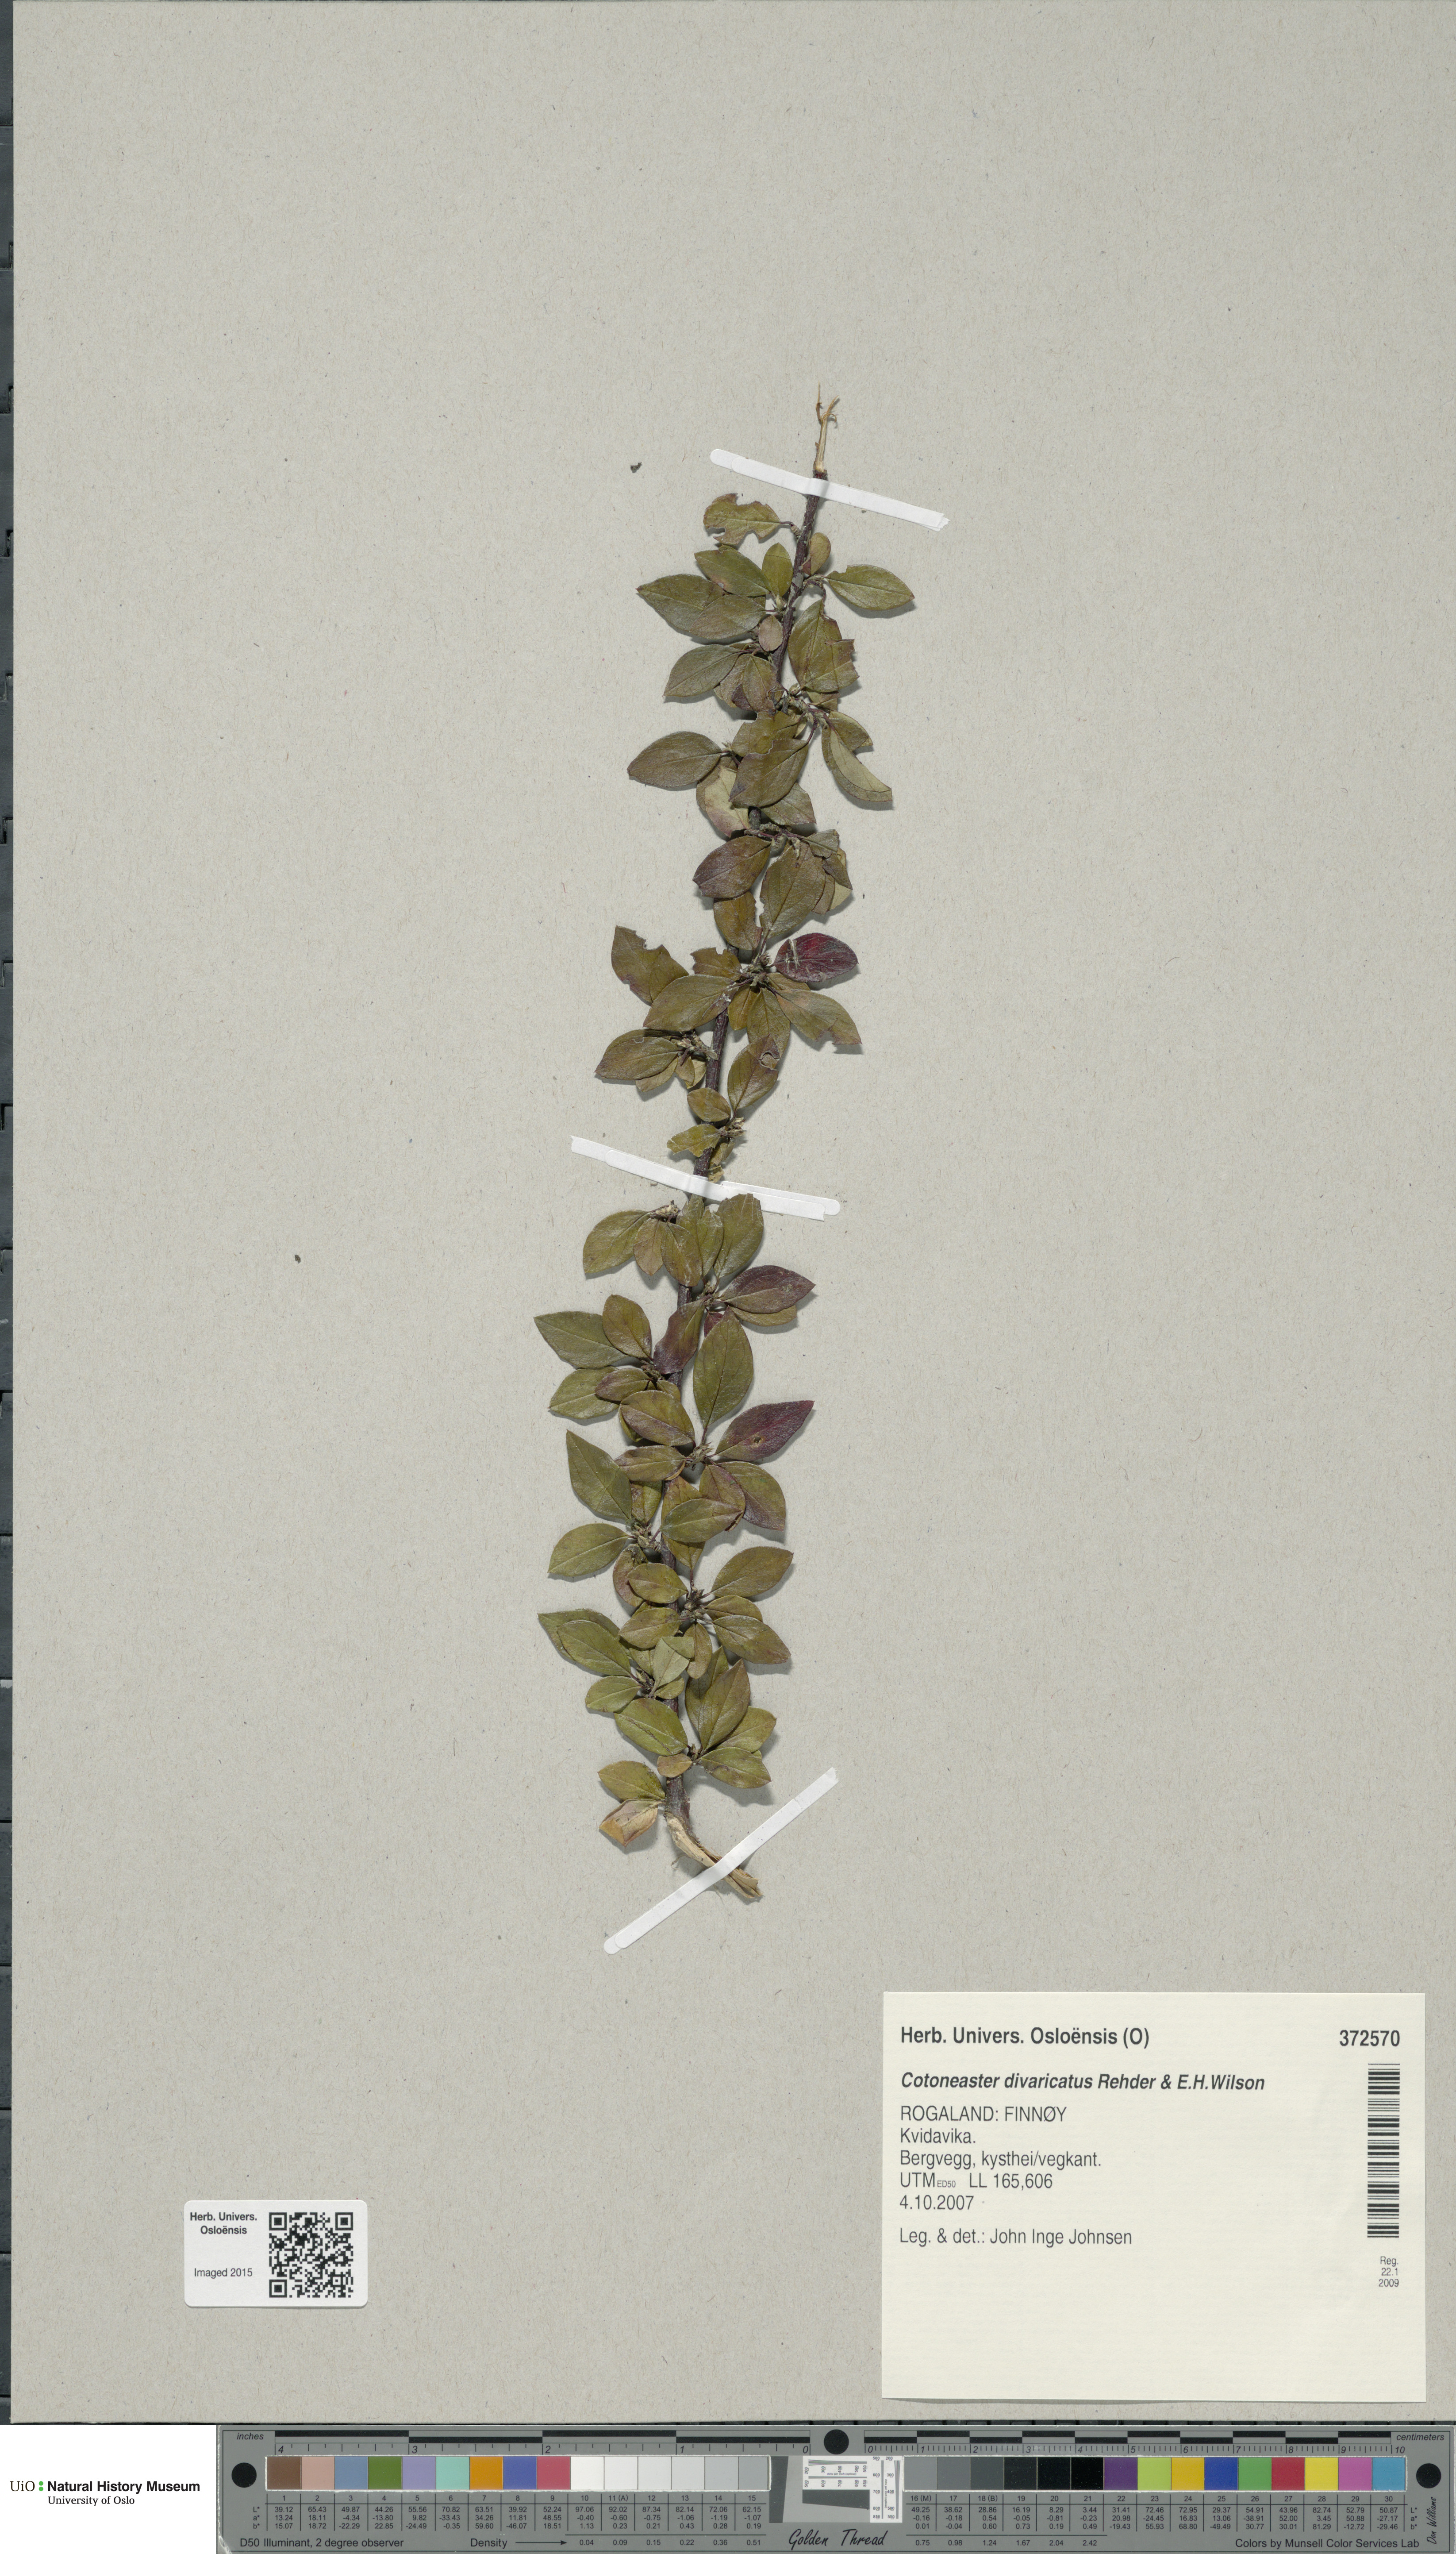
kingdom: Plantae
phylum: Tracheophyta
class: Magnoliopsida
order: Rosales
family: Rosaceae
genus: Cotoneaster
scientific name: Cotoneaster divaricatus
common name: Spreading cotoneaster
